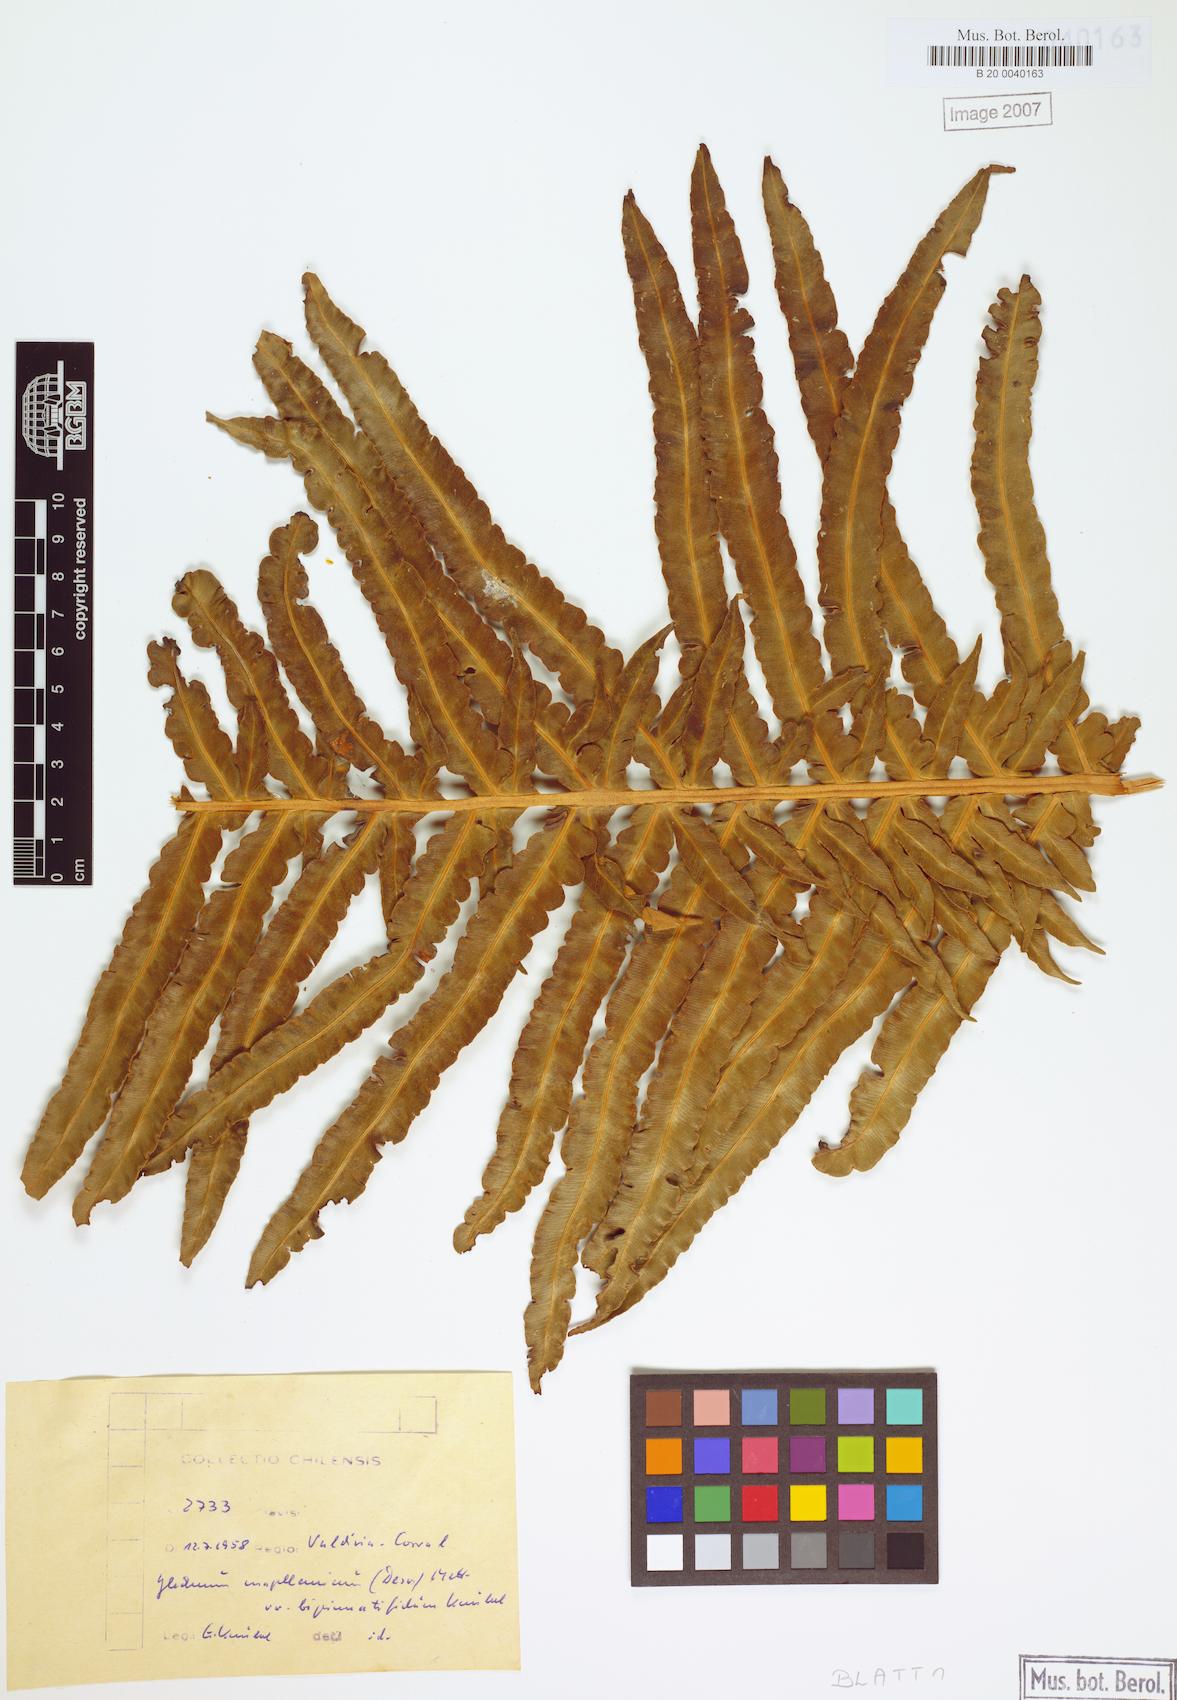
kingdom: Plantae
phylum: Tracheophyta
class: Polypodiopsida
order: Polypodiales
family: Blechnaceae
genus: Lomariocycas
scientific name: Lomariocycas magellanica
